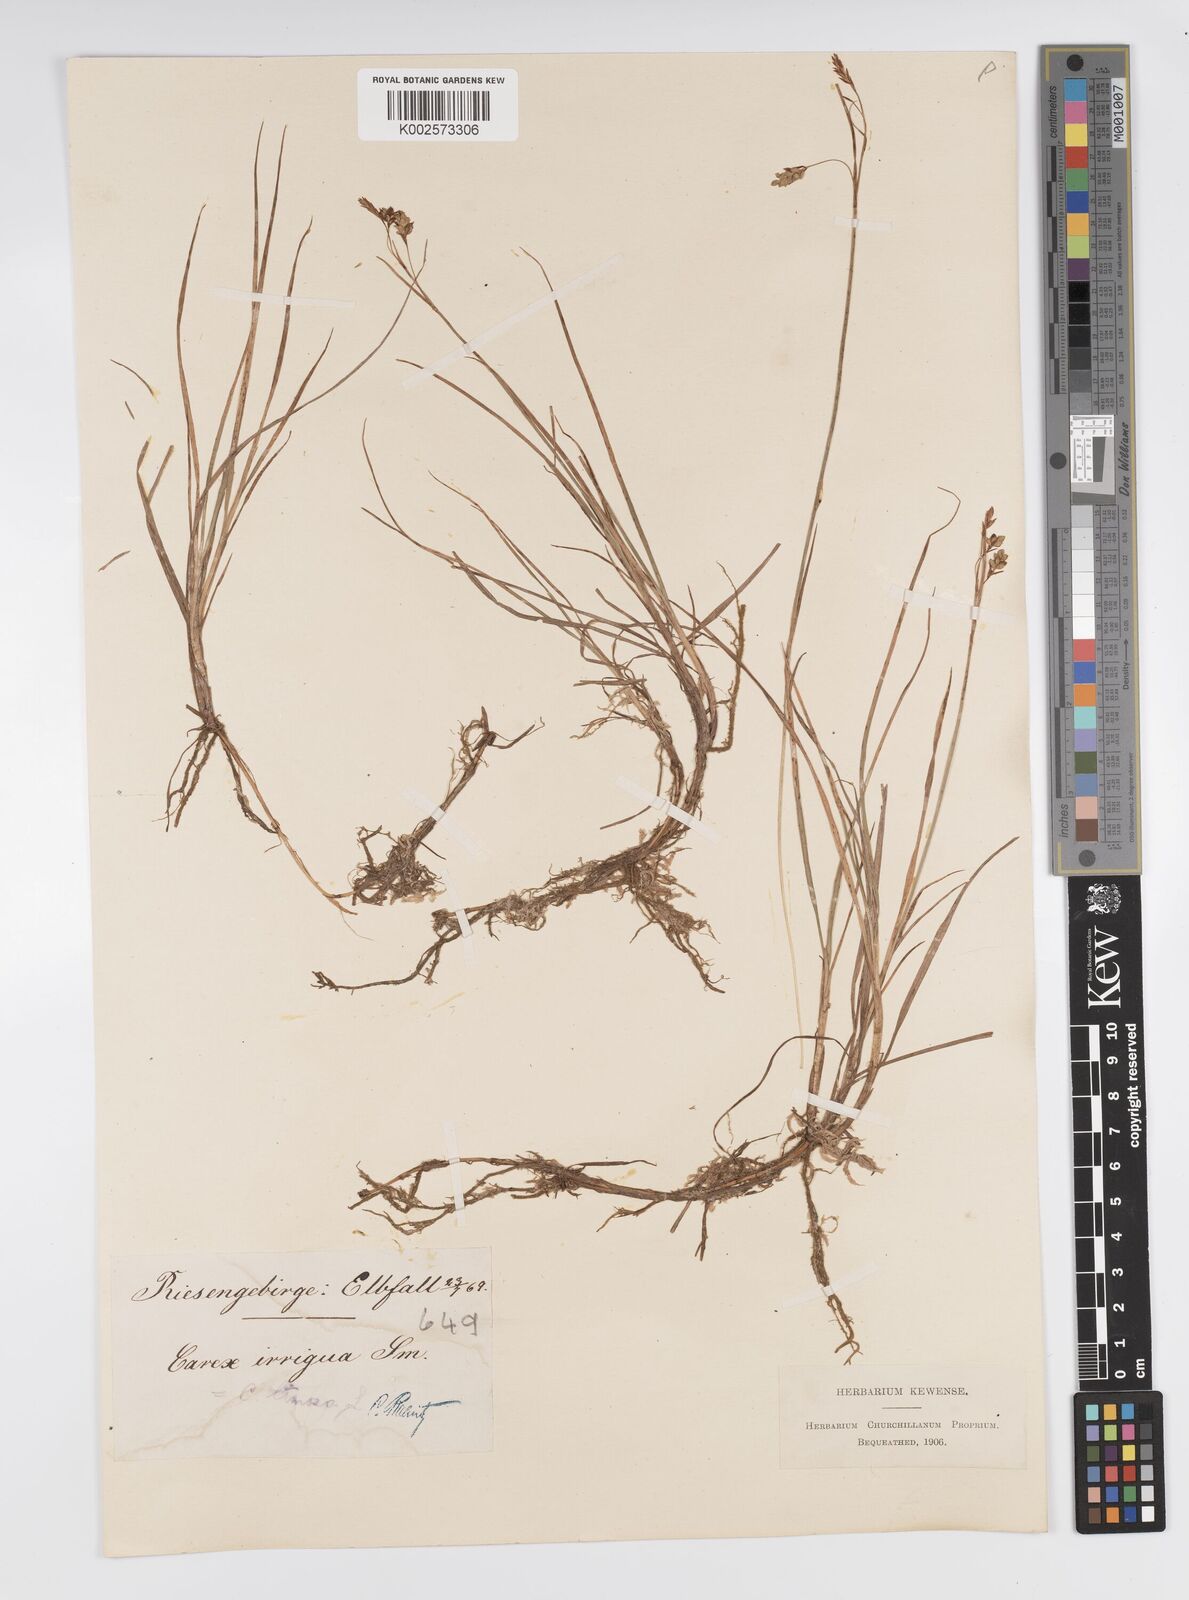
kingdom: Plantae
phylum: Tracheophyta
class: Liliopsida
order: Poales
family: Cyperaceae
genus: Carex
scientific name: Carex magellanica
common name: Bog sedge
